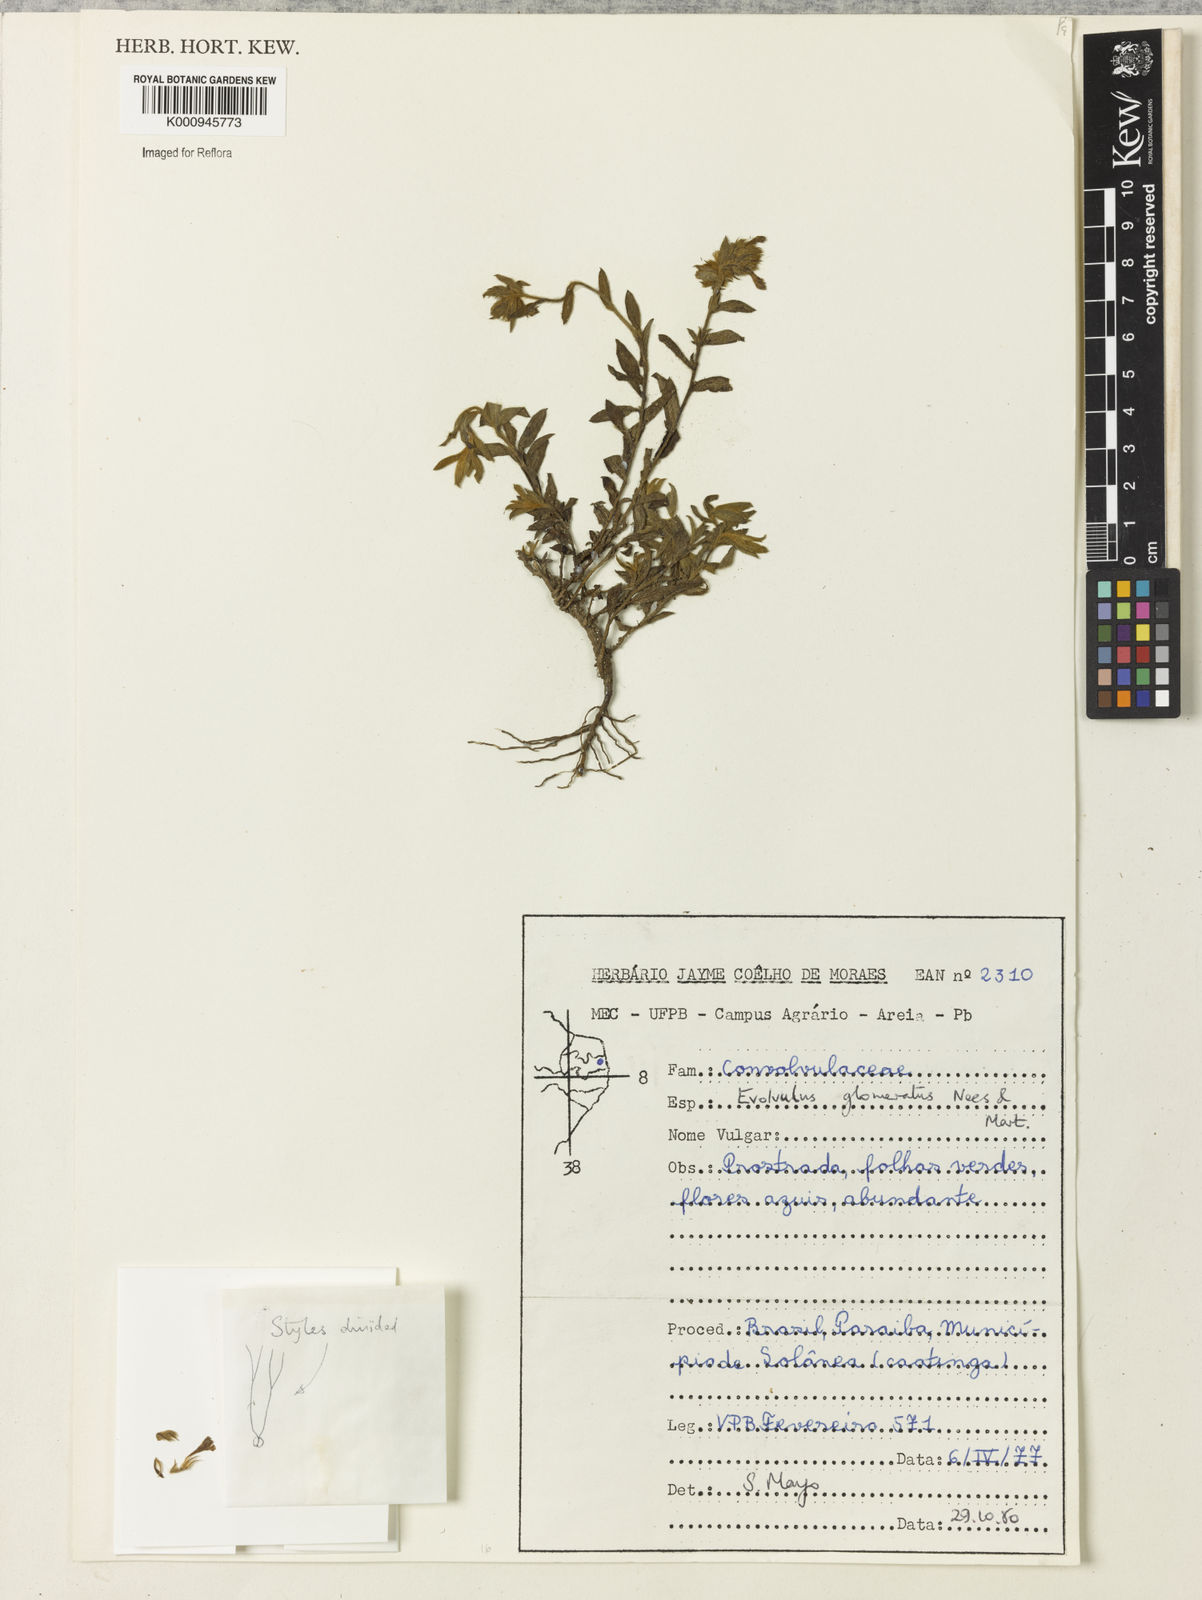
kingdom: Plantae
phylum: Tracheophyta
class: Magnoliopsida
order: Solanales
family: Convolvulaceae
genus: Evolvulus
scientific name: Evolvulus glomeratus
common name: Brazilian dwarf morning-glory
